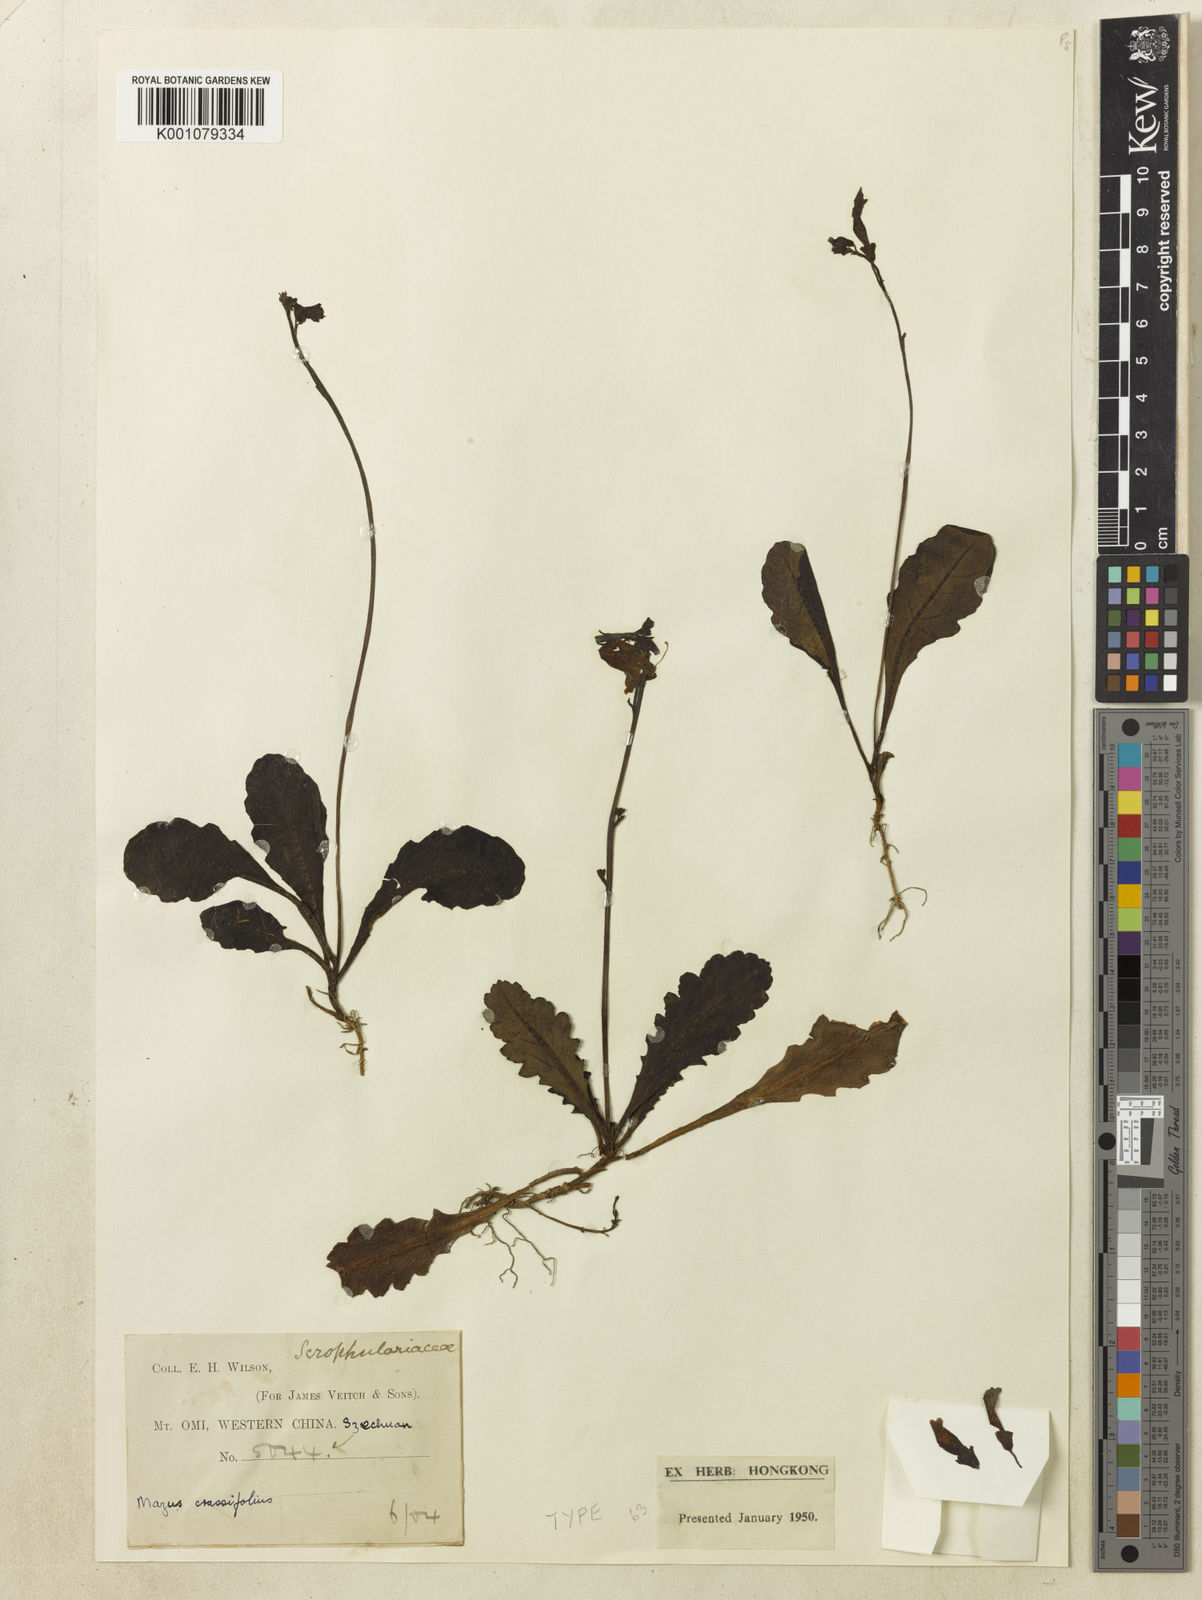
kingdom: Plantae
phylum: Tracheophyta
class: Magnoliopsida
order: Lamiales
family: Mazaceae
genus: Mazus
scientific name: Mazus omeiensis
